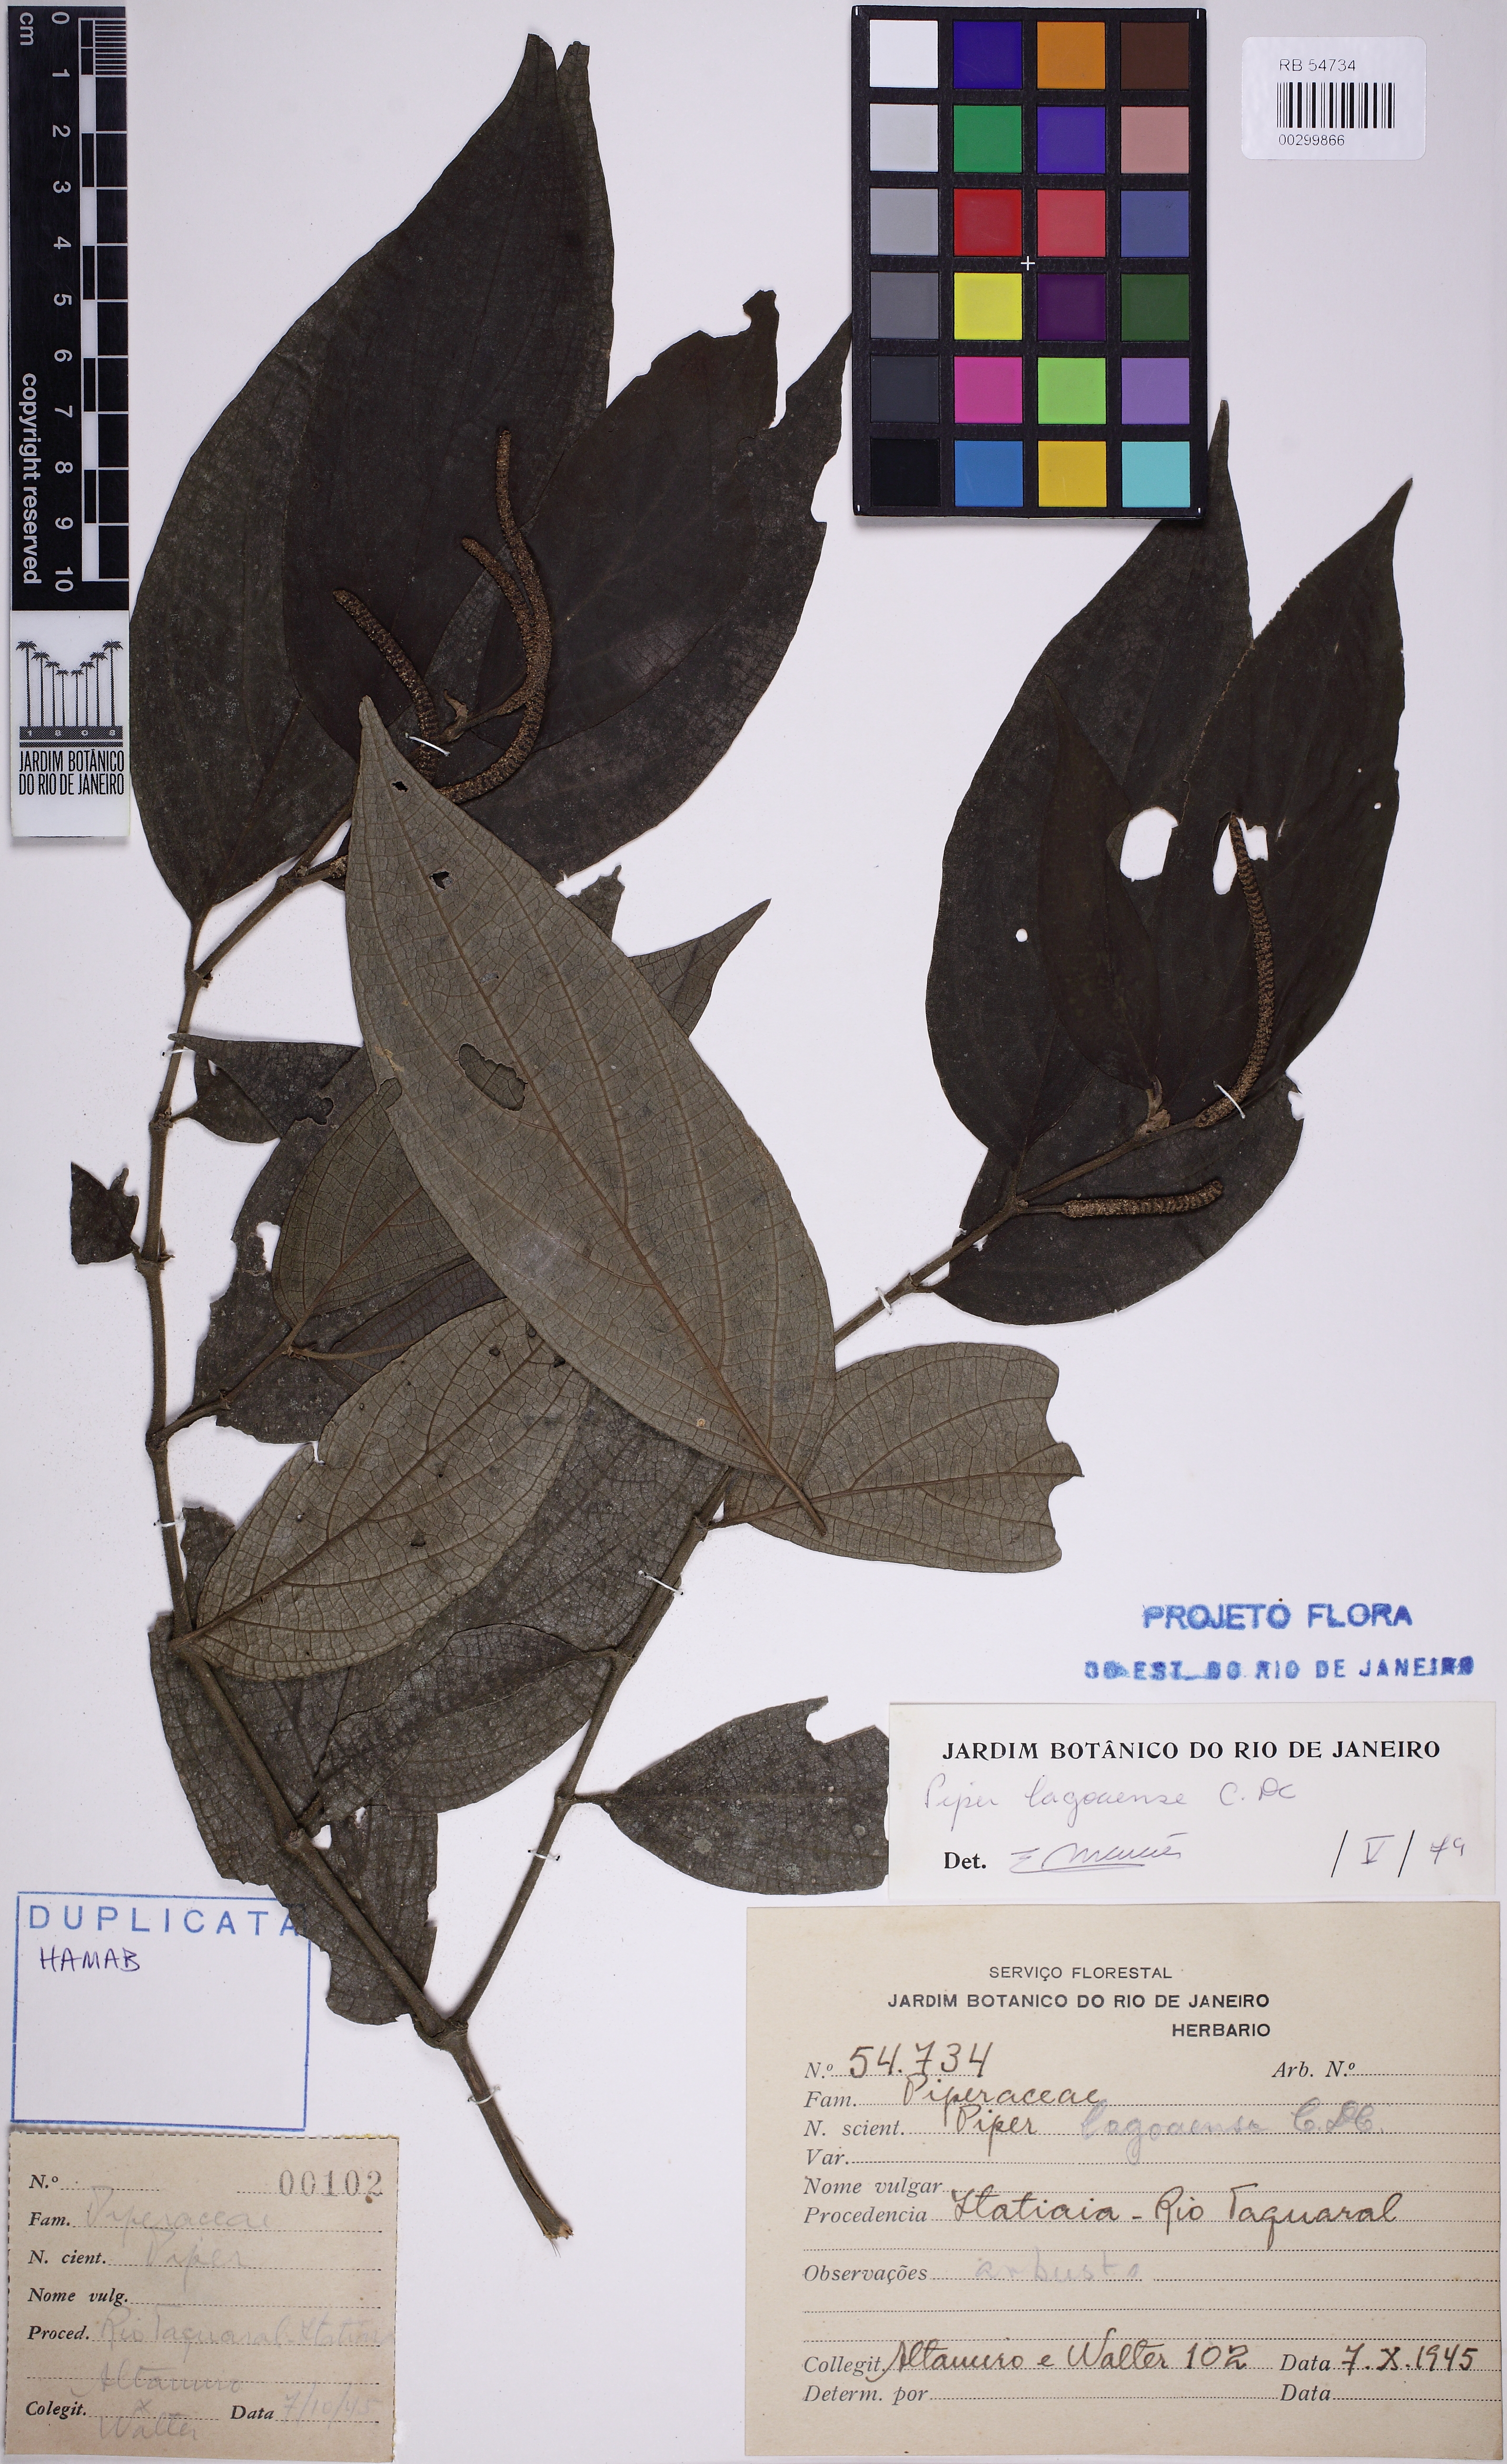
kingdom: Plantae
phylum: Tracheophyta
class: Magnoliopsida
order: Piperales
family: Piperaceae
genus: Piper
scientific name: Piper lagoaense
